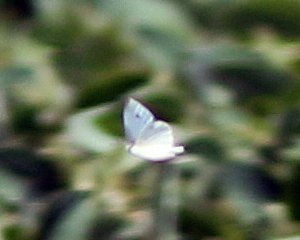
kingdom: Animalia
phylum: Arthropoda
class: Insecta
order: Lepidoptera
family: Pieridae
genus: Pieris
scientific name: Pieris rapae
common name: Cabbage White
